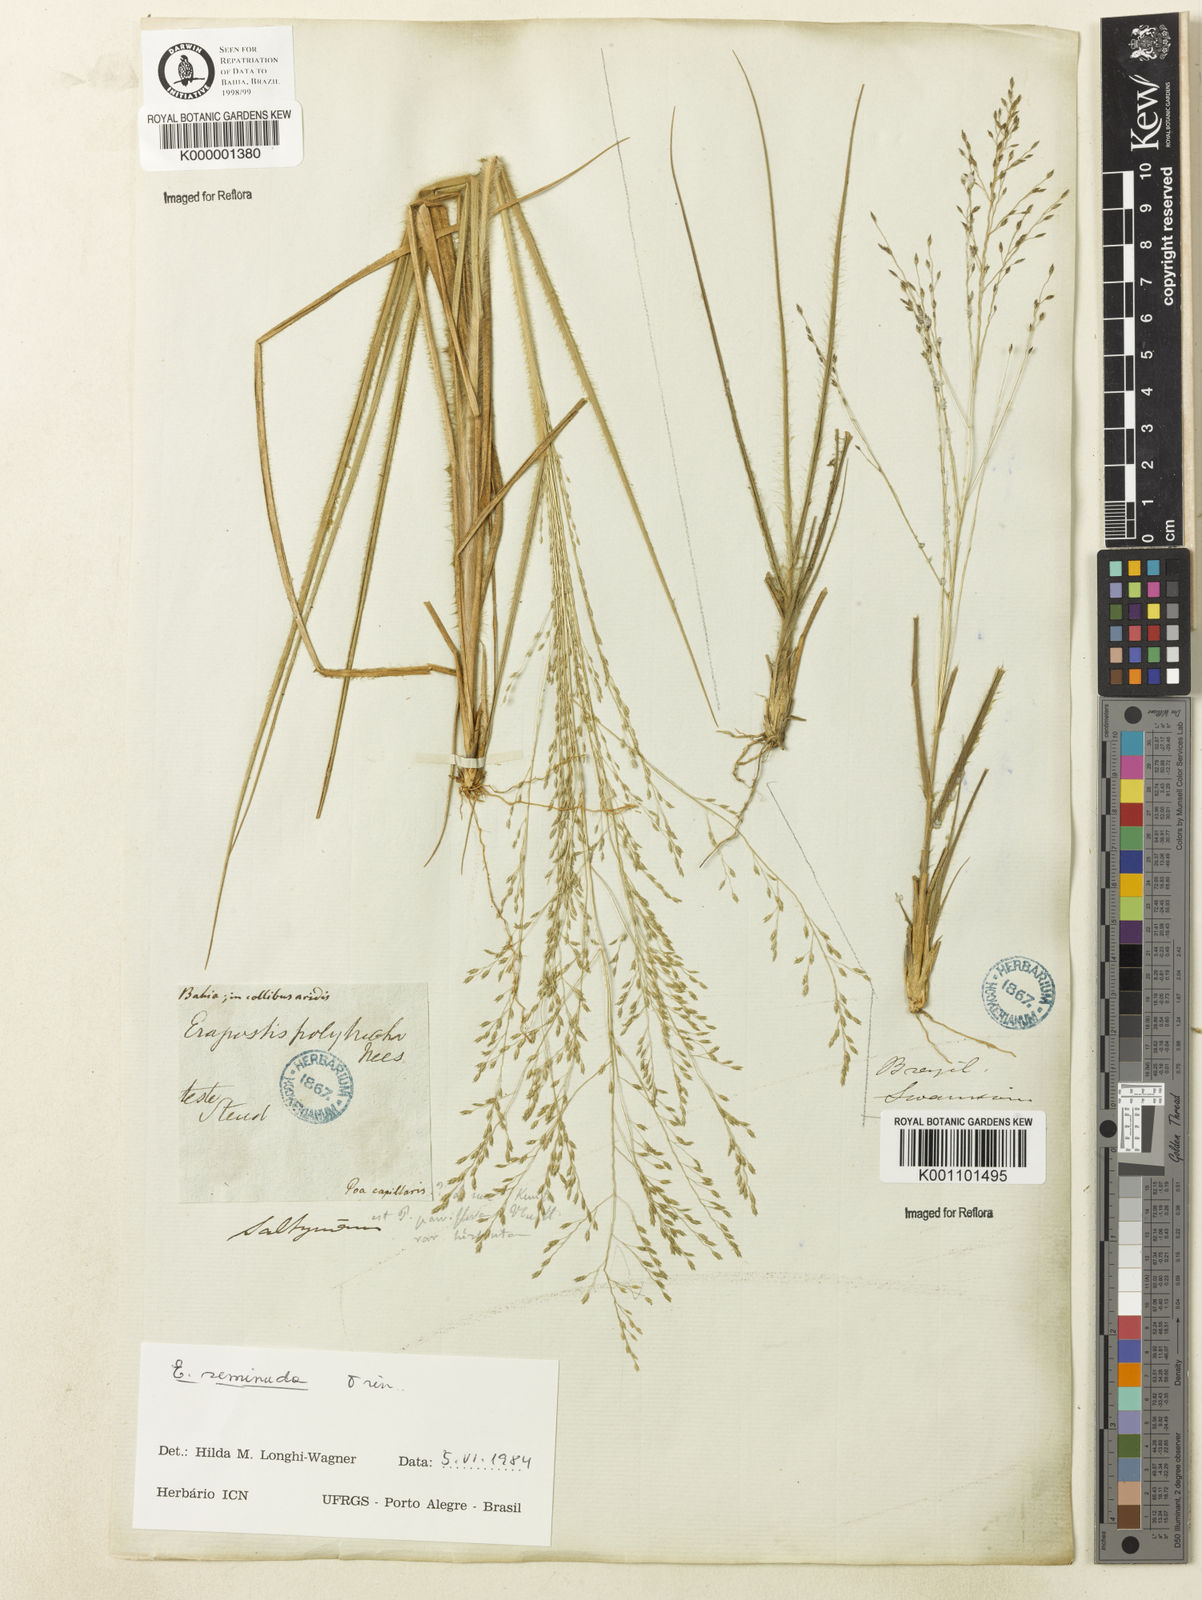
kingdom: Plantae
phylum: Tracheophyta
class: Liliopsida
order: Poales
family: Poaceae
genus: Eragrostis
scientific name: Eragrostis seminuda
